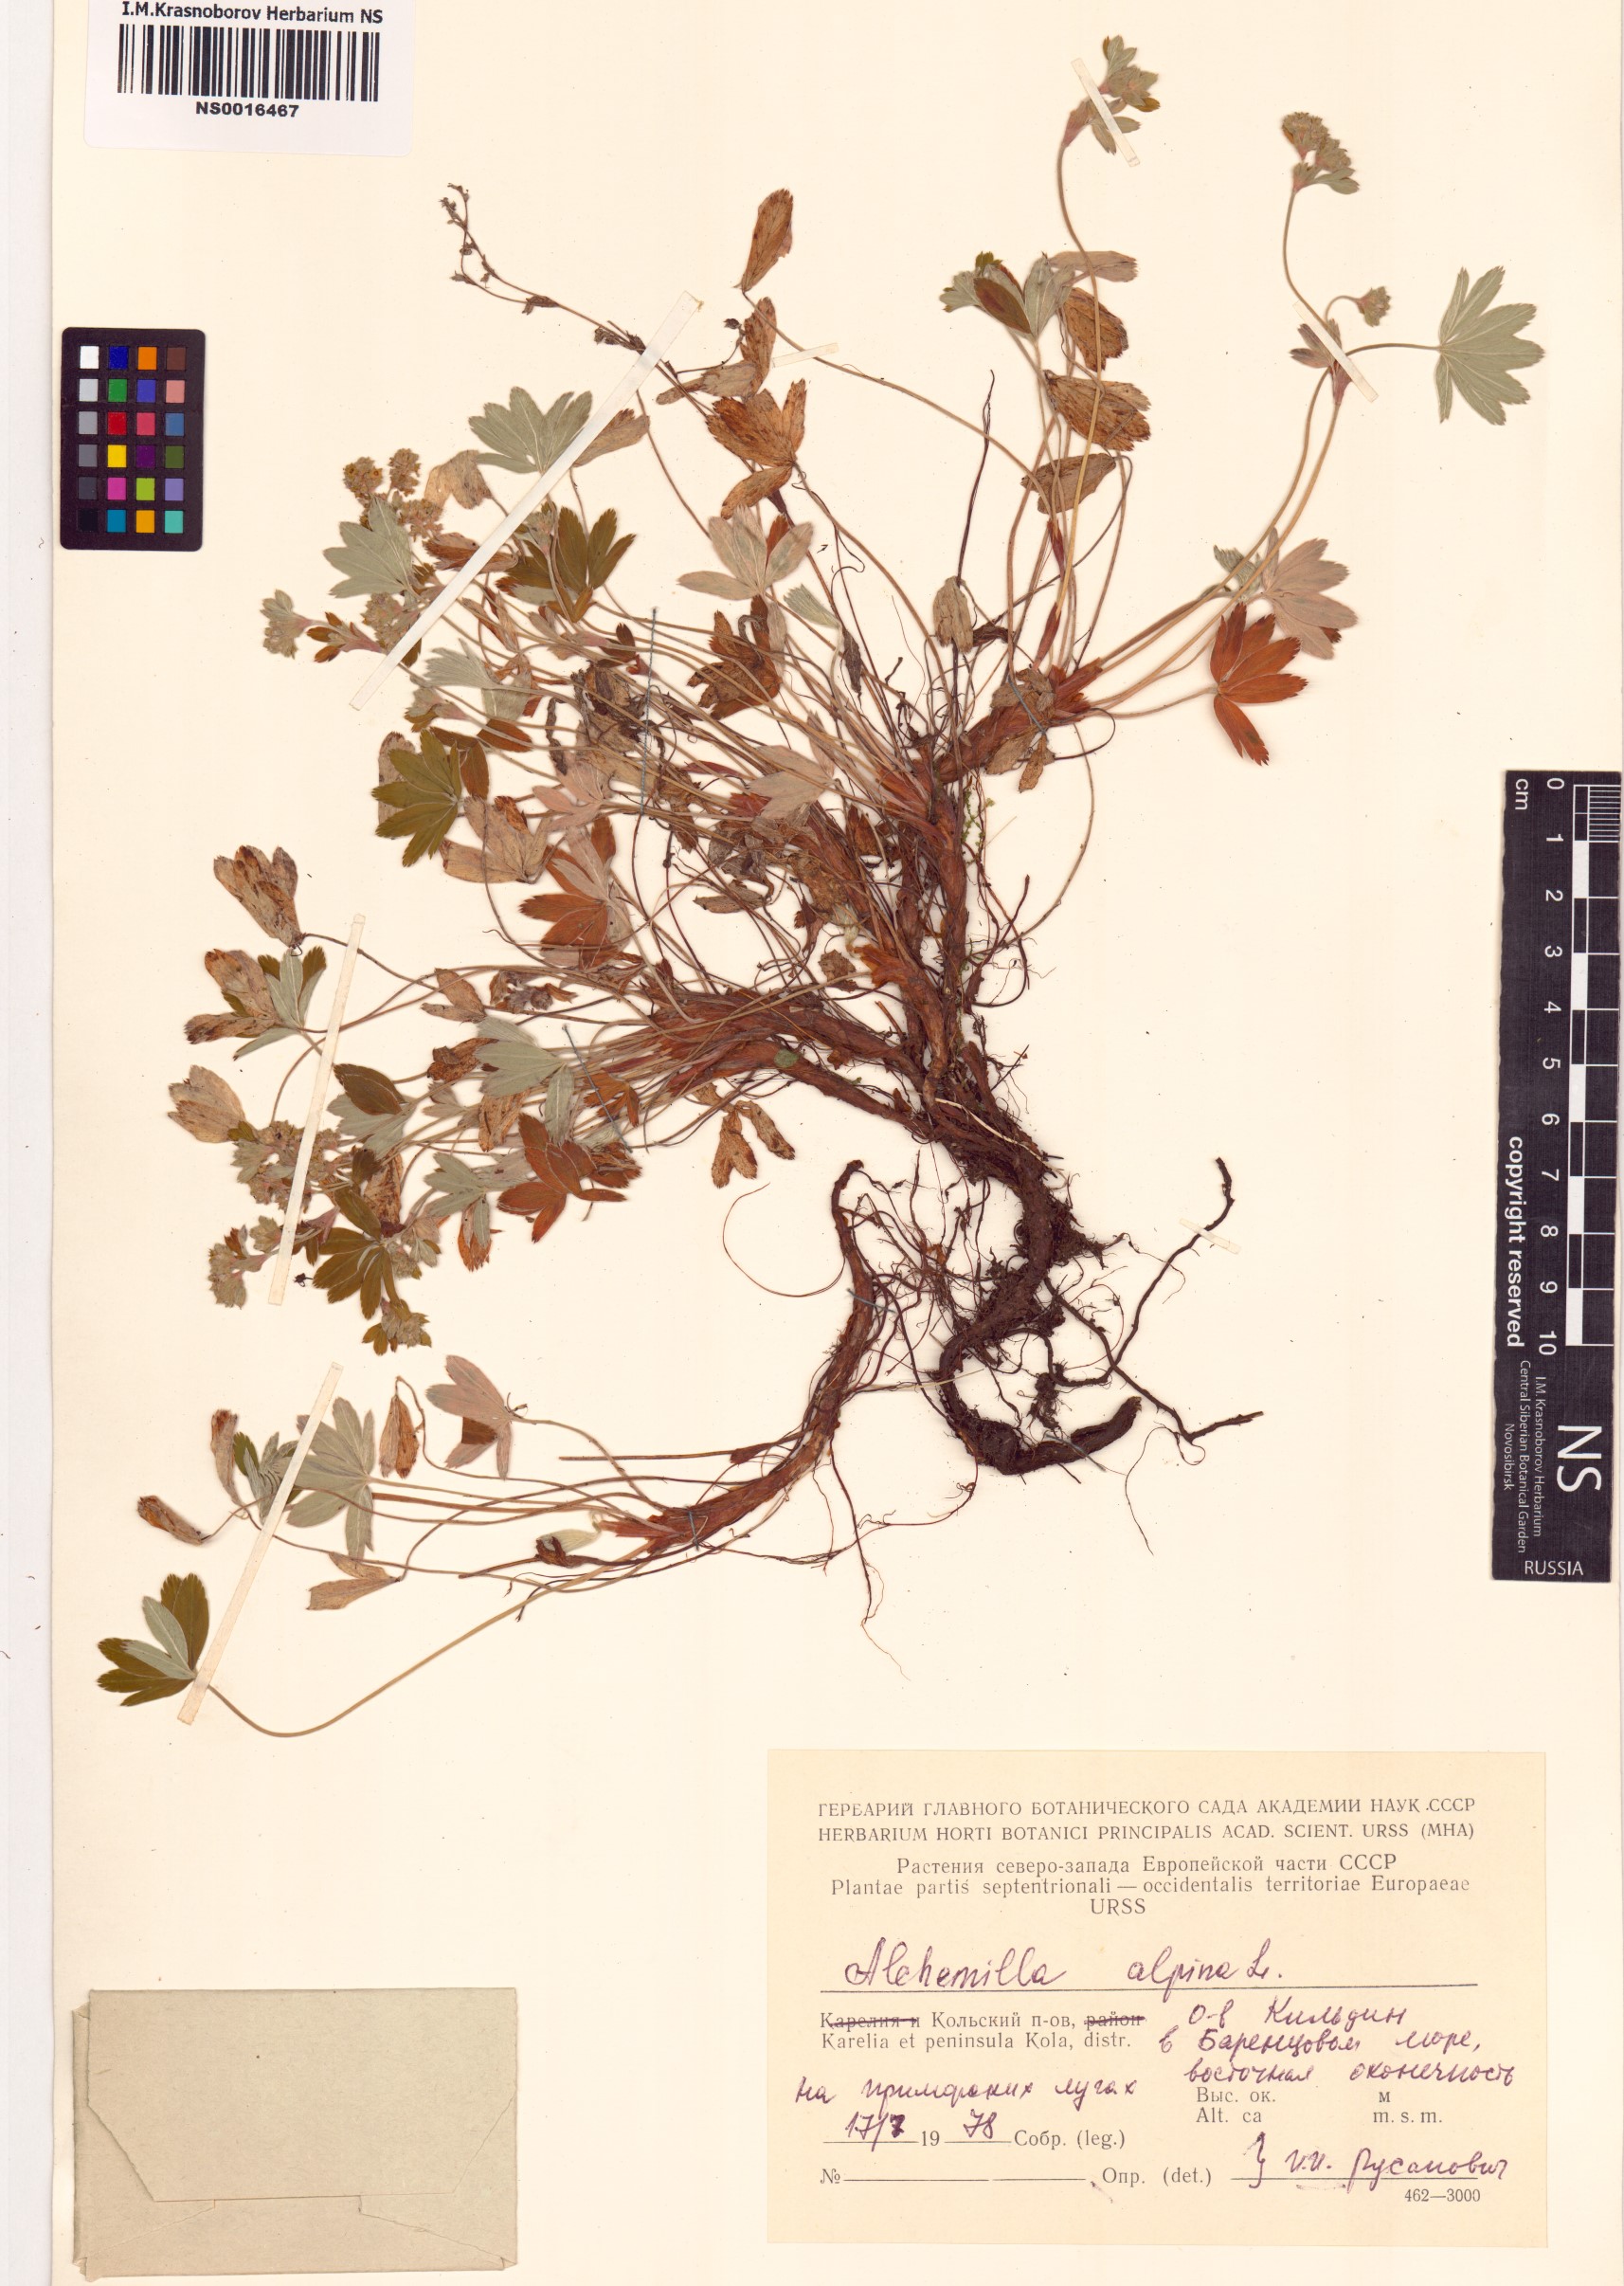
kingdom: Plantae
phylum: Tracheophyta
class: Magnoliopsida
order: Rosales
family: Rosaceae
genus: Alchemilla
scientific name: Alchemilla alpina
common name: Alpine lady's-mantle
